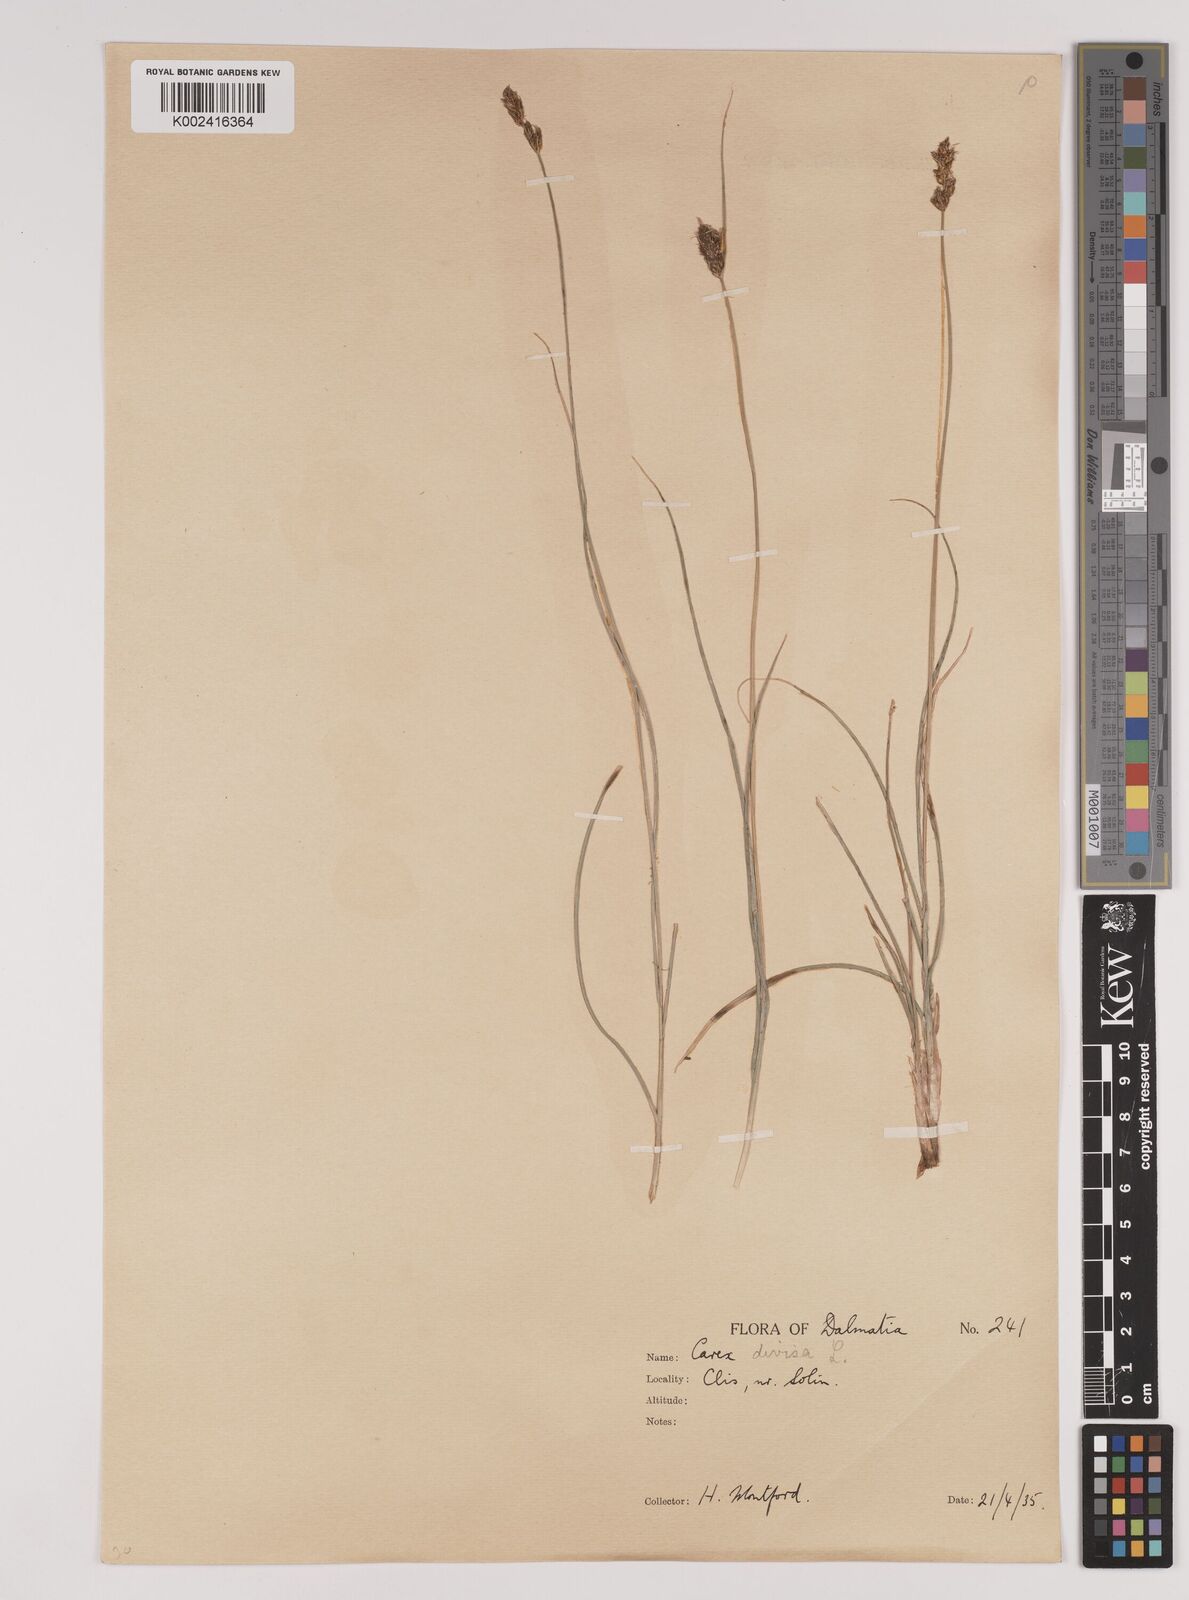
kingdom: Plantae
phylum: Tracheophyta
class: Liliopsida
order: Poales
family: Cyperaceae
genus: Carex
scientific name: Carex divisa
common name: Divided sedge
